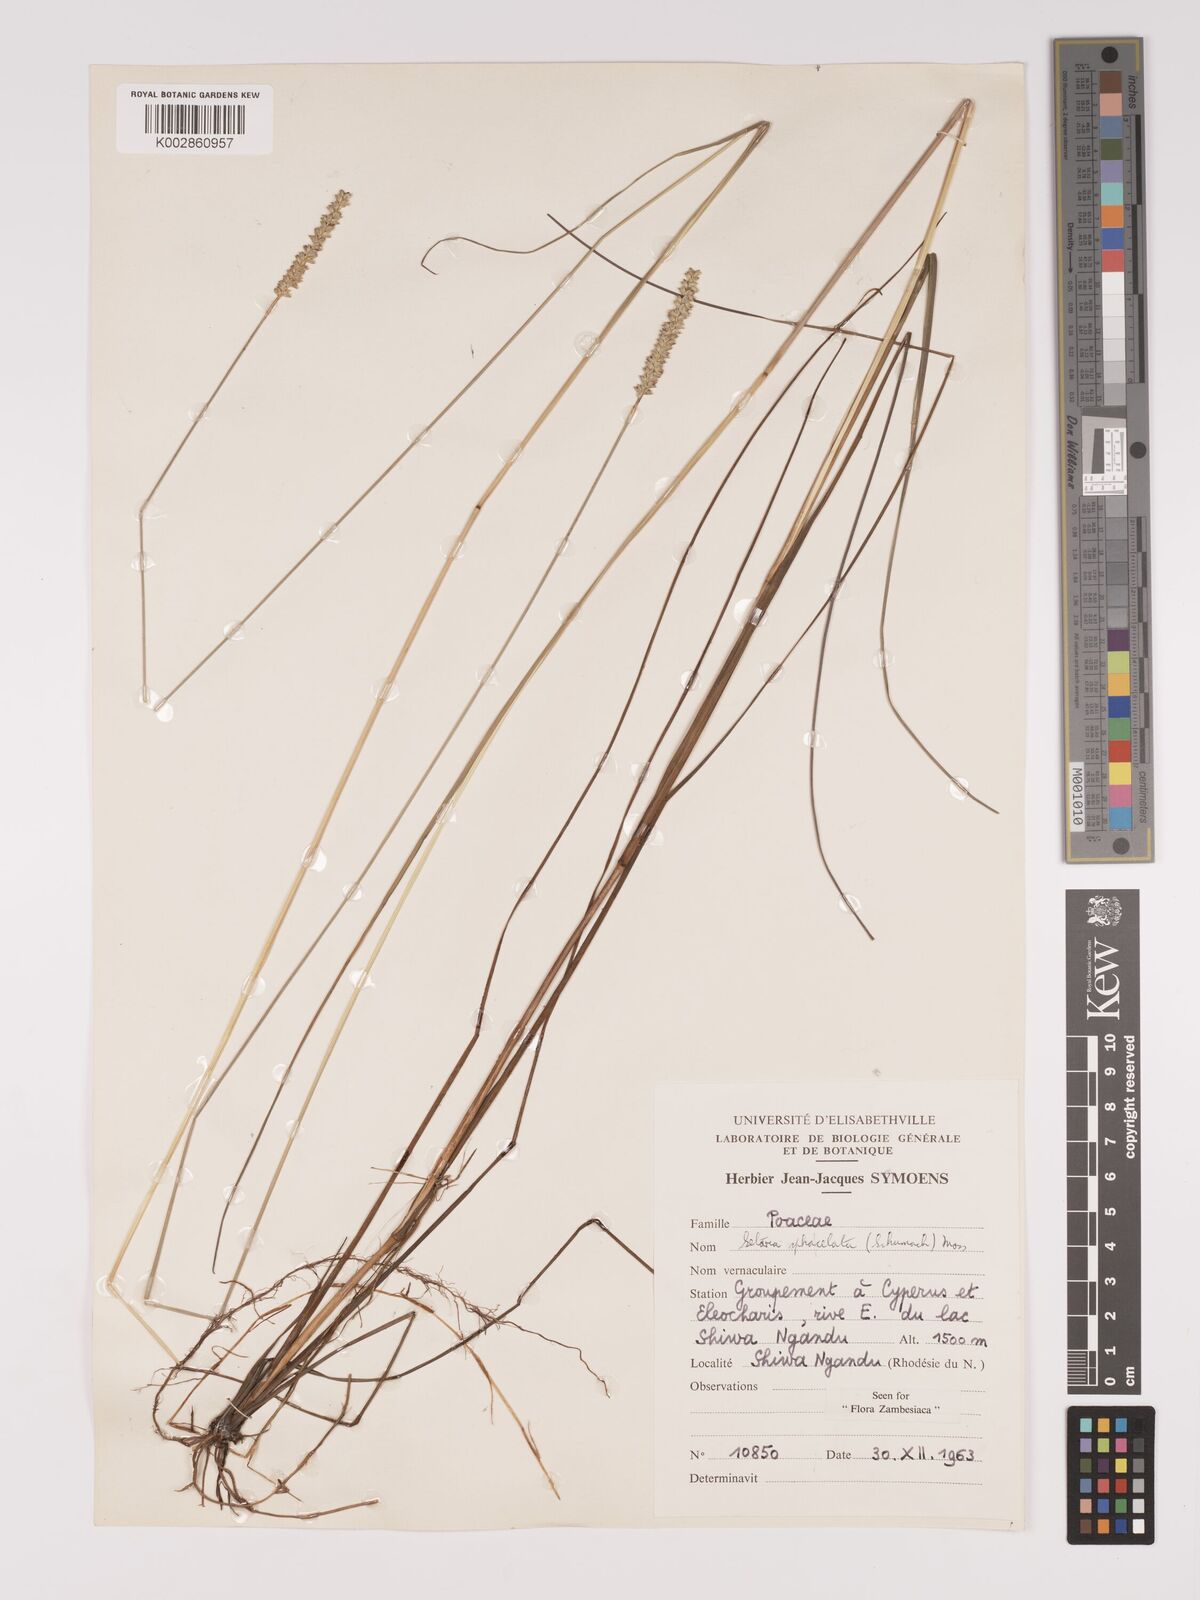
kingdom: Plantae
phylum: Tracheophyta
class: Liliopsida
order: Poales
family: Poaceae
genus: Setaria
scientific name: Setaria
